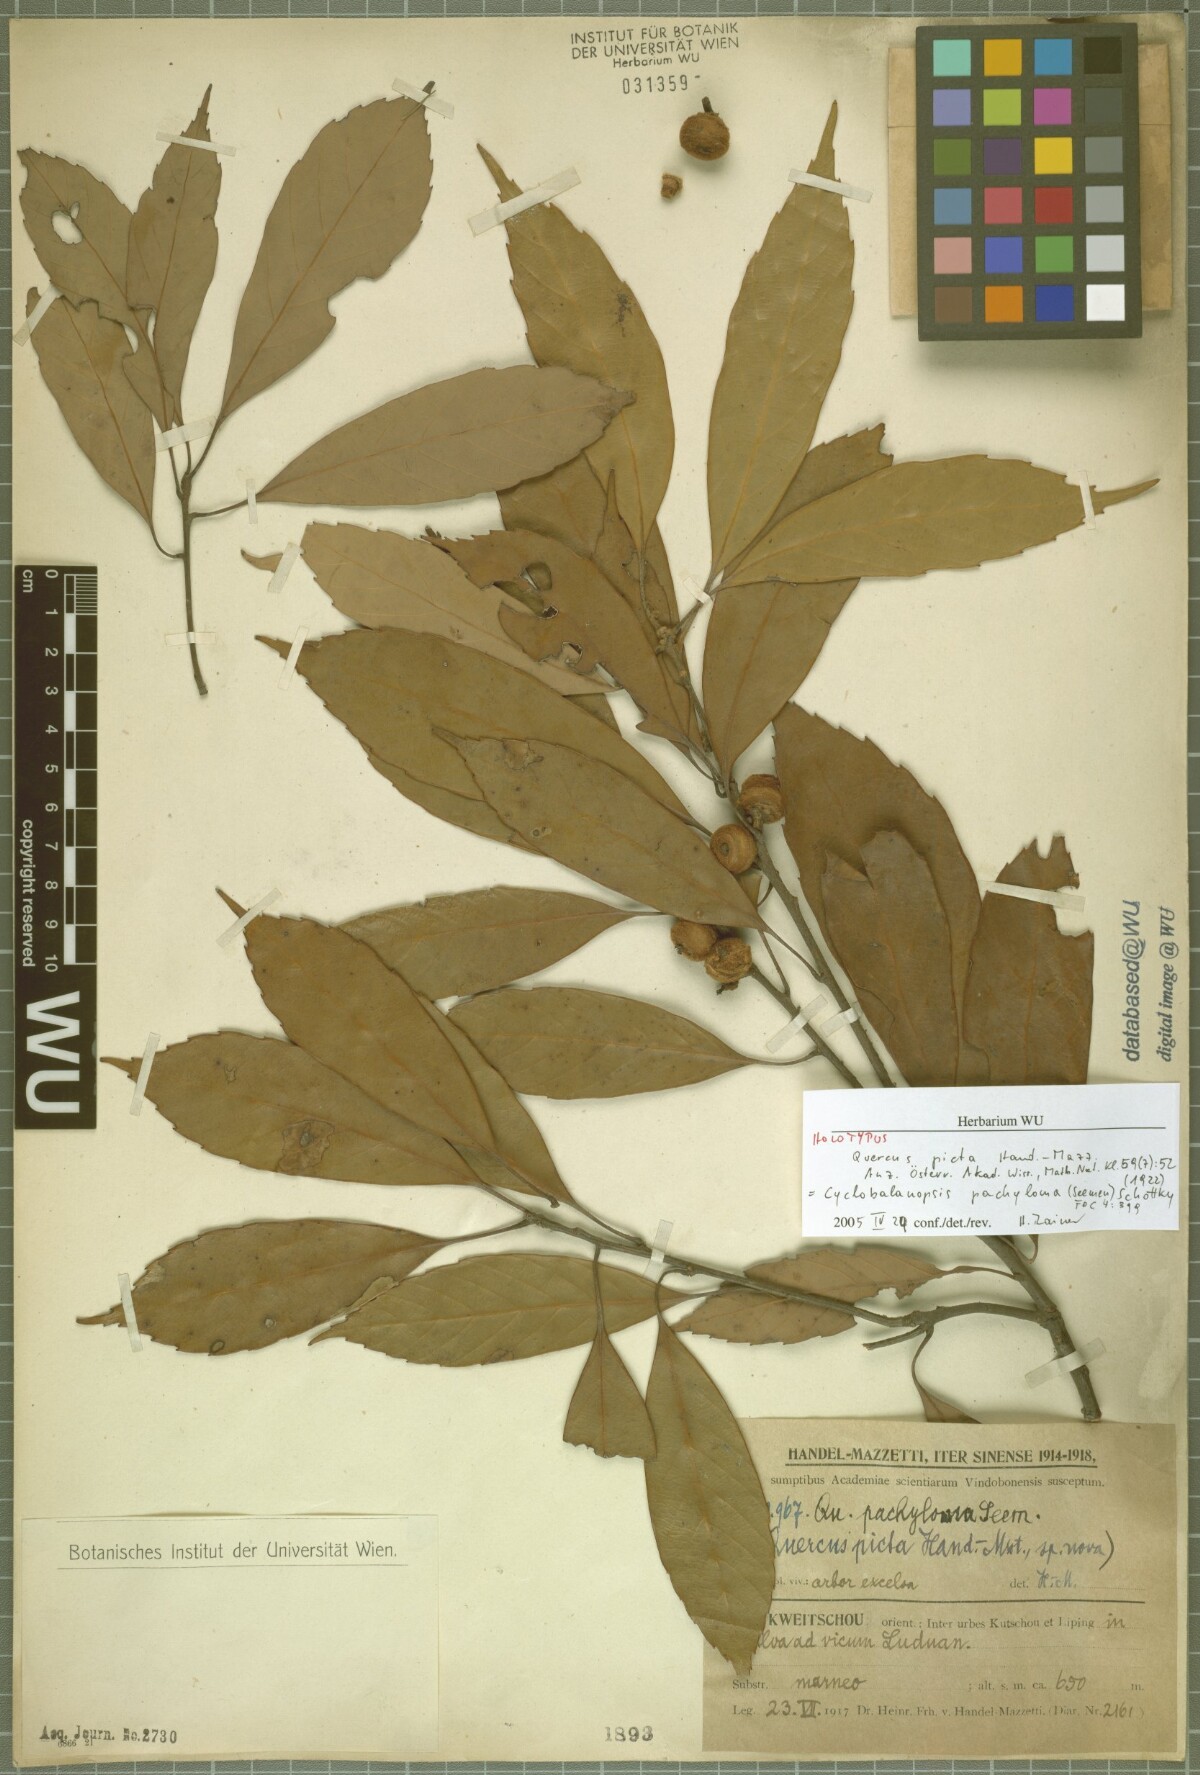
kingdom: Plantae
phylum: Tracheophyta
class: Magnoliopsida
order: Fagales
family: Fagaceae
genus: Quercus
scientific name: Quercus pachyloma
